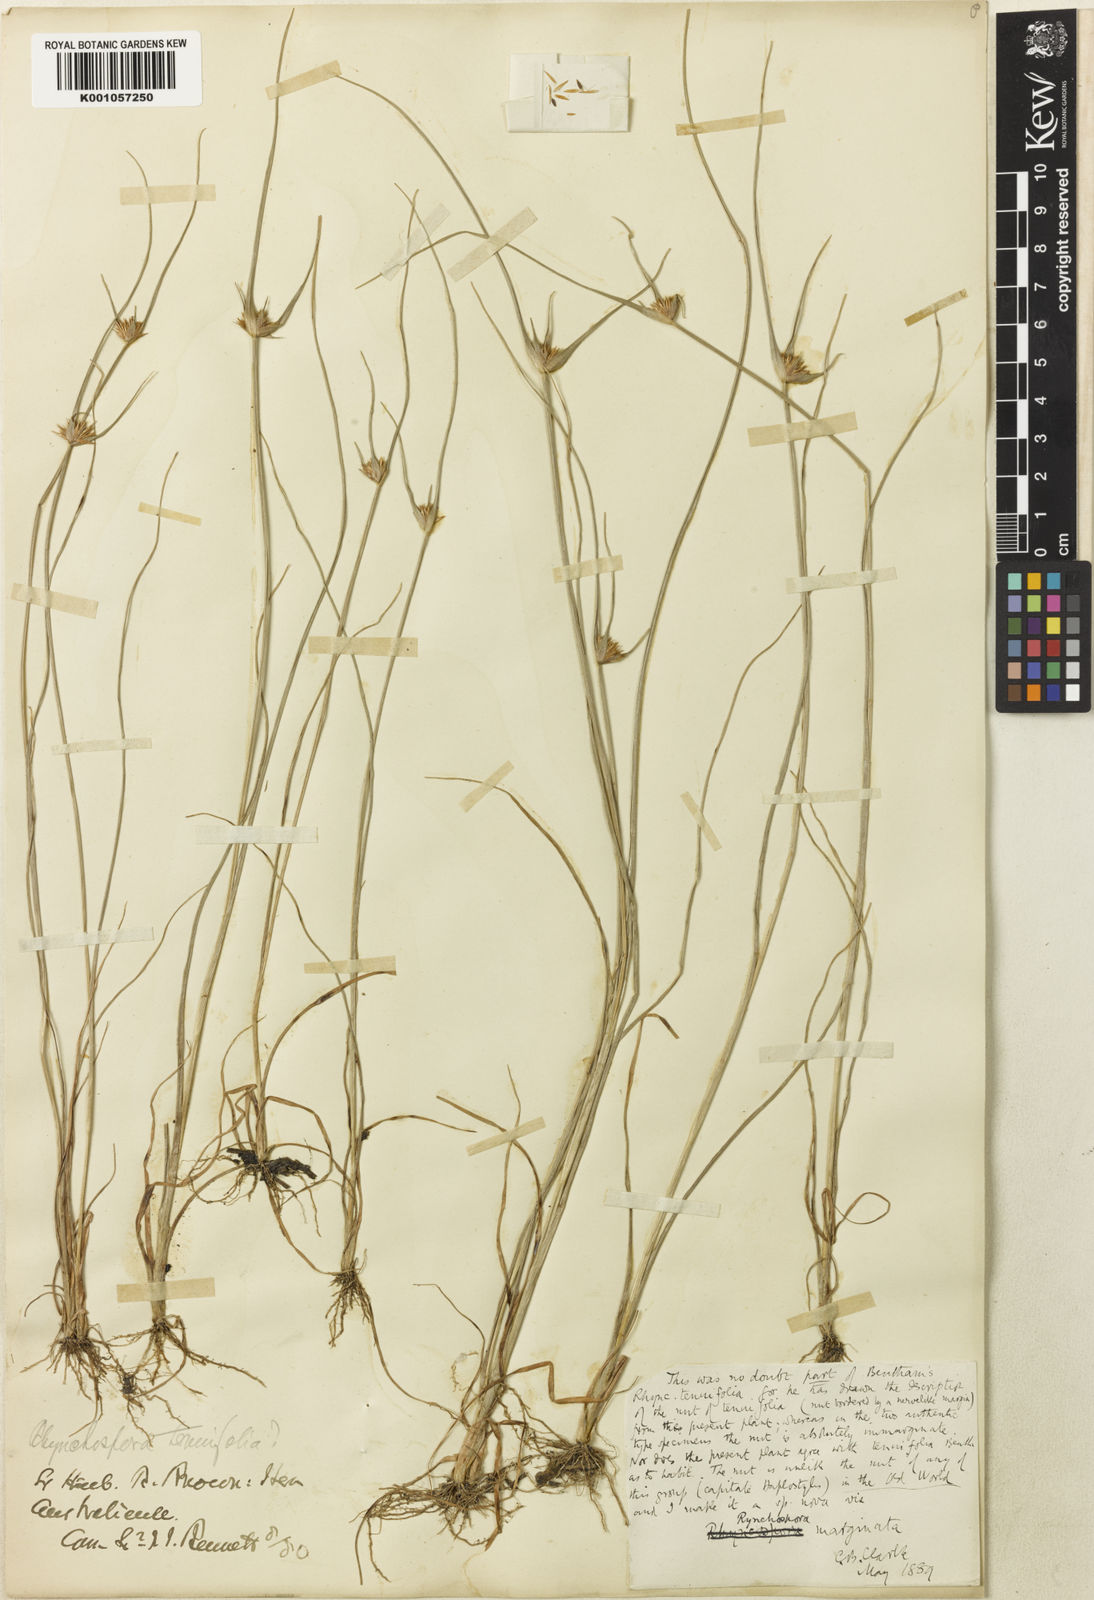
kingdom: Plantae
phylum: Tracheophyta
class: Liliopsida
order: Poales
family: Cyperaceae
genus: Rhynchospora
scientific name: Rhynchospora submarginata
